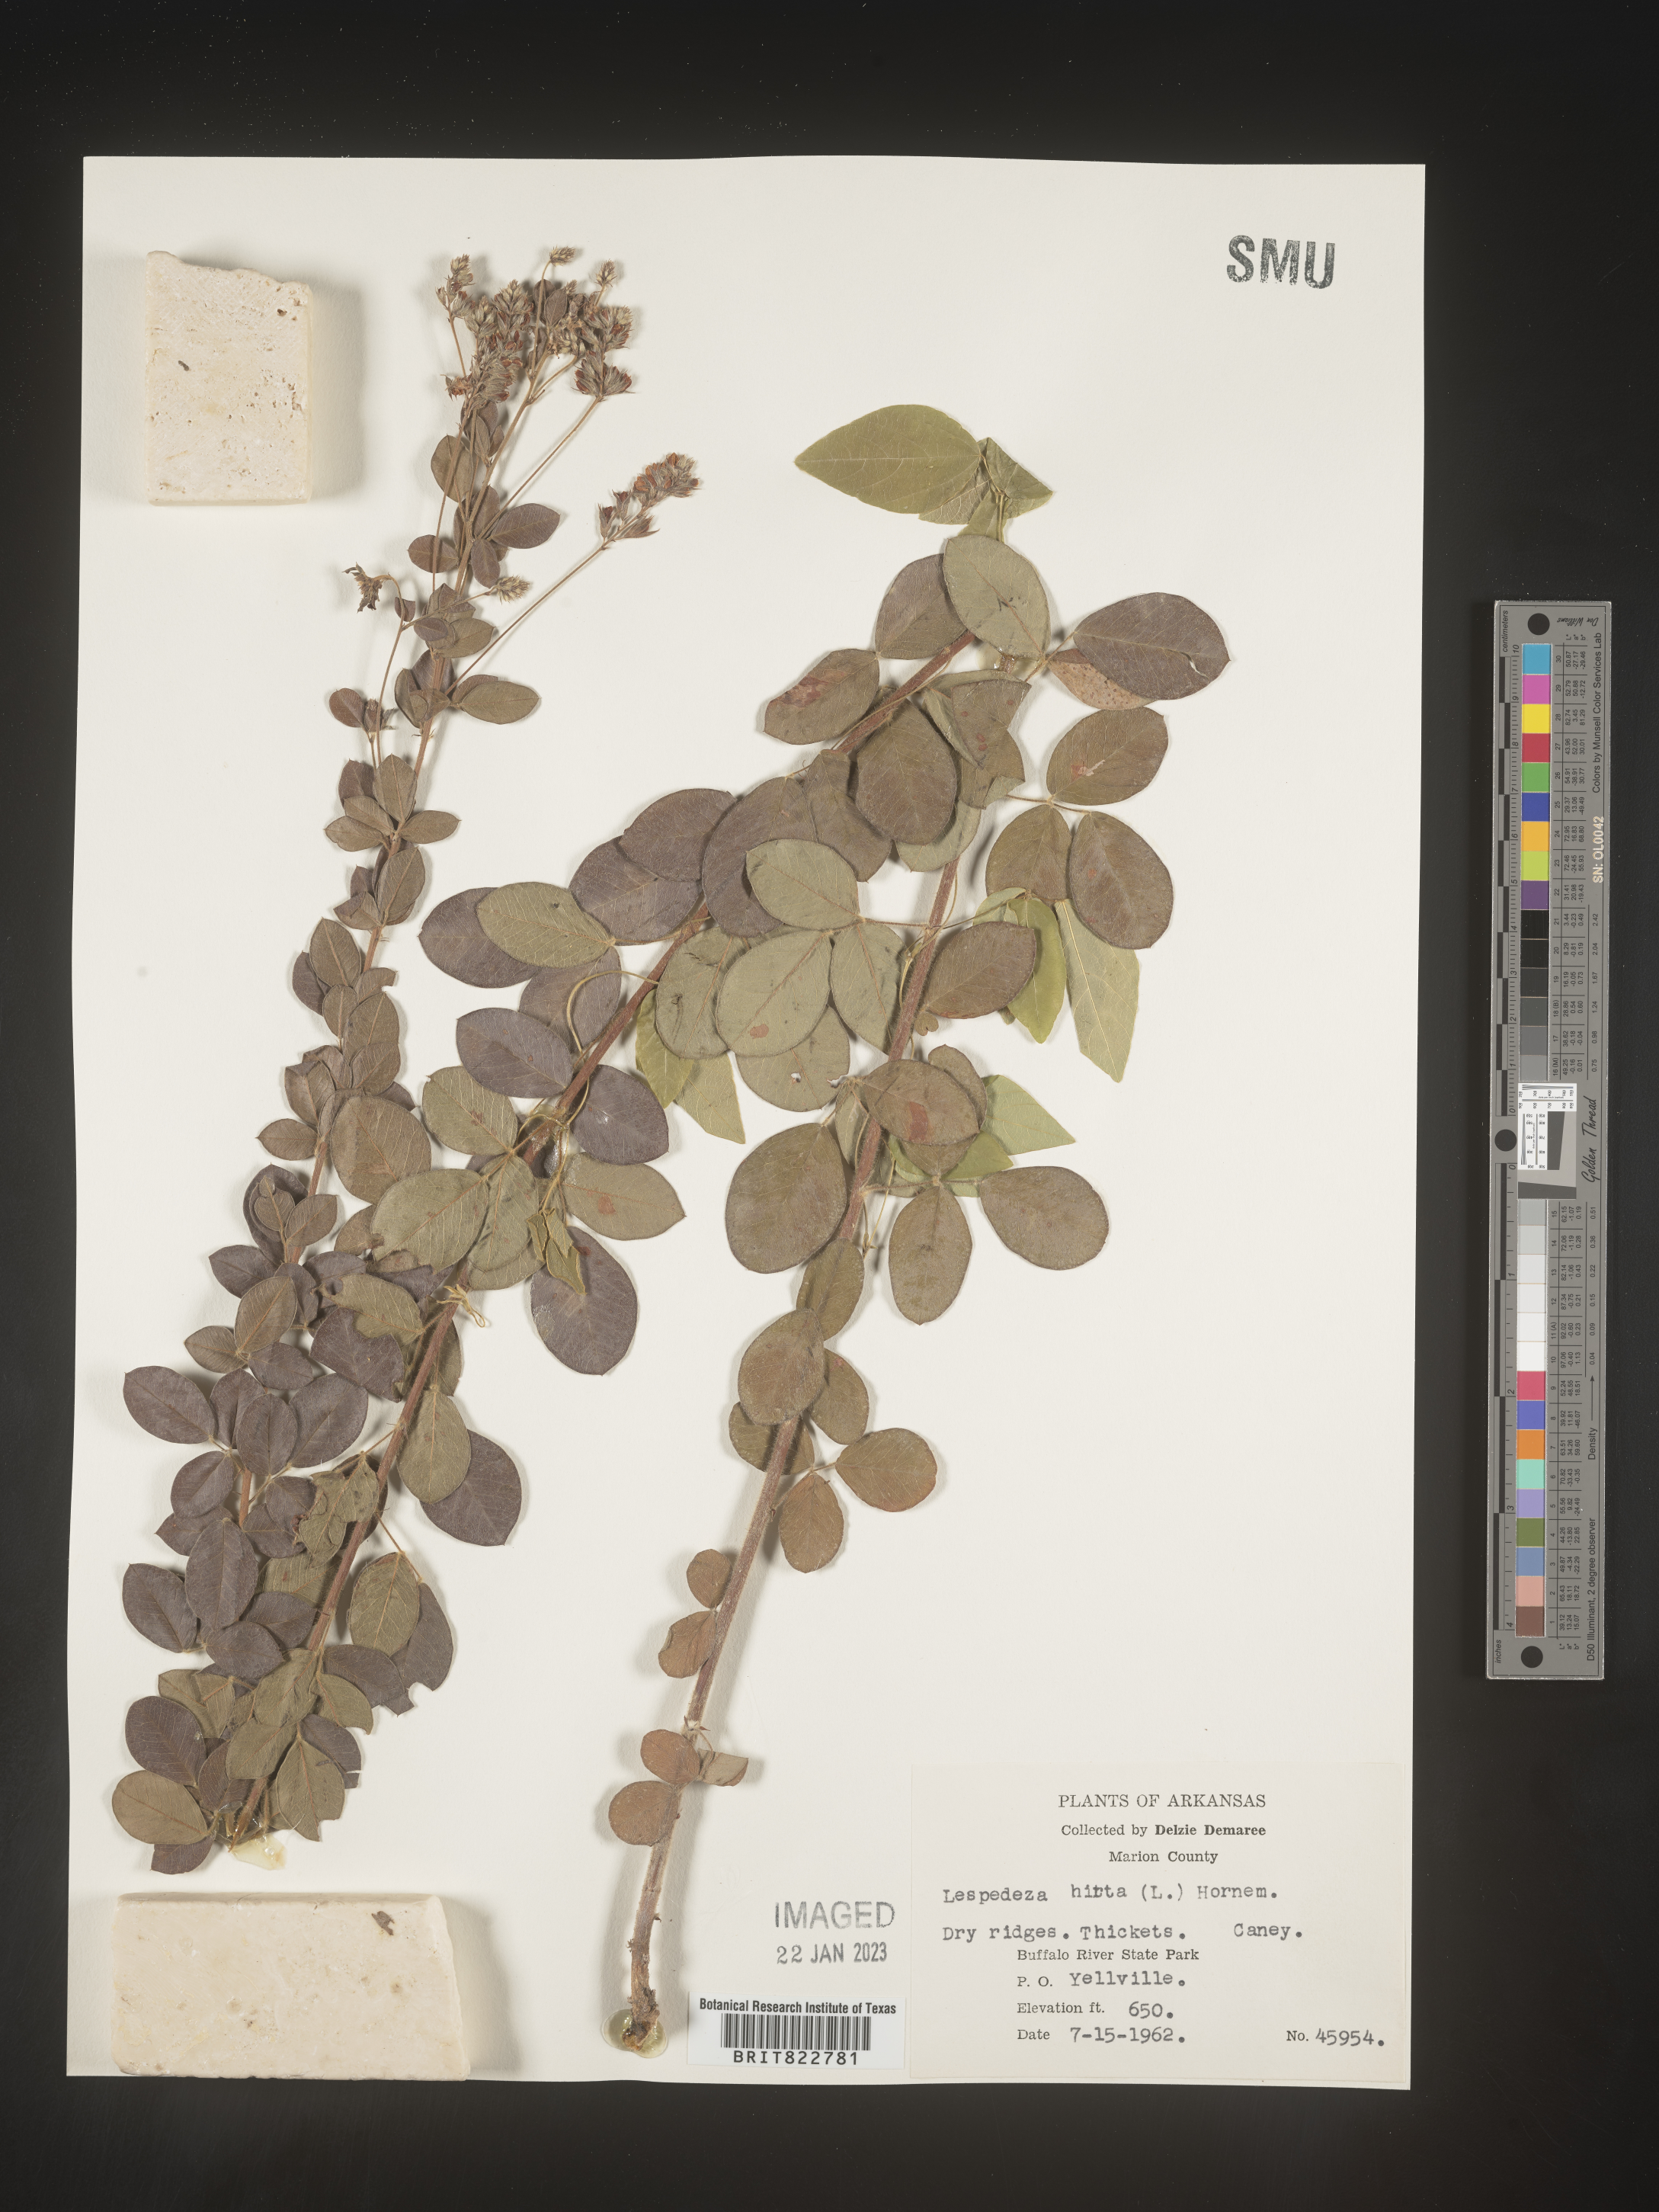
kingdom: Plantae
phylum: Tracheophyta
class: Magnoliopsida
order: Fabales
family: Fabaceae
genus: Lespedeza
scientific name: Lespedeza hirta
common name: Hairy lespedeza
